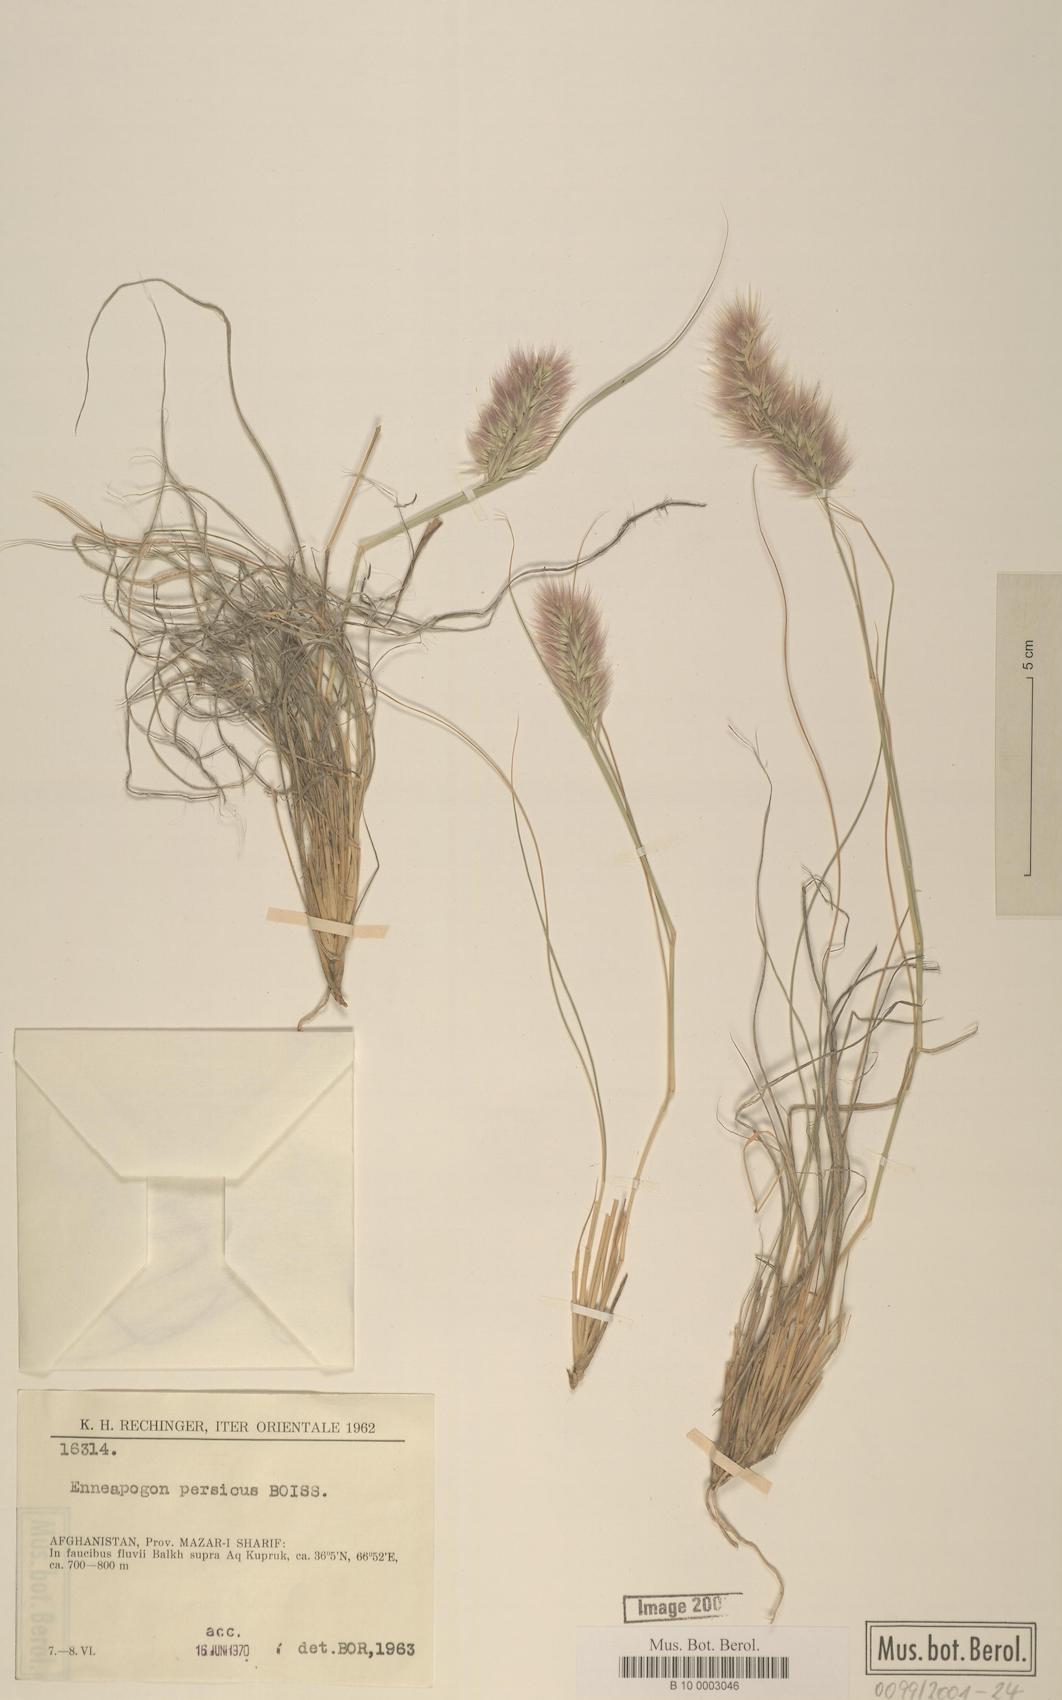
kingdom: Plantae
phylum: Tracheophyta
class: Liliopsida
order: Poales
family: Poaceae
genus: Enneapogon
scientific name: Enneapogon persicus
